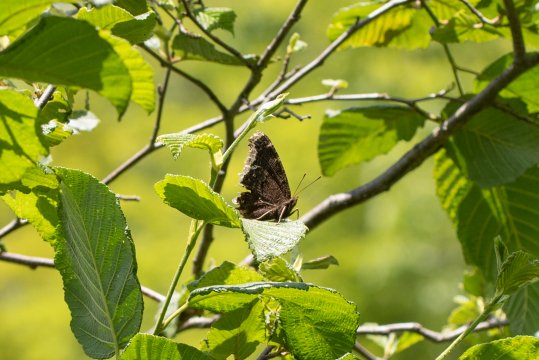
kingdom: Animalia
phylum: Arthropoda
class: Insecta
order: Lepidoptera
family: Nymphalidae
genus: Nymphalis
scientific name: Nymphalis antiopa
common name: Mourning Cloak
